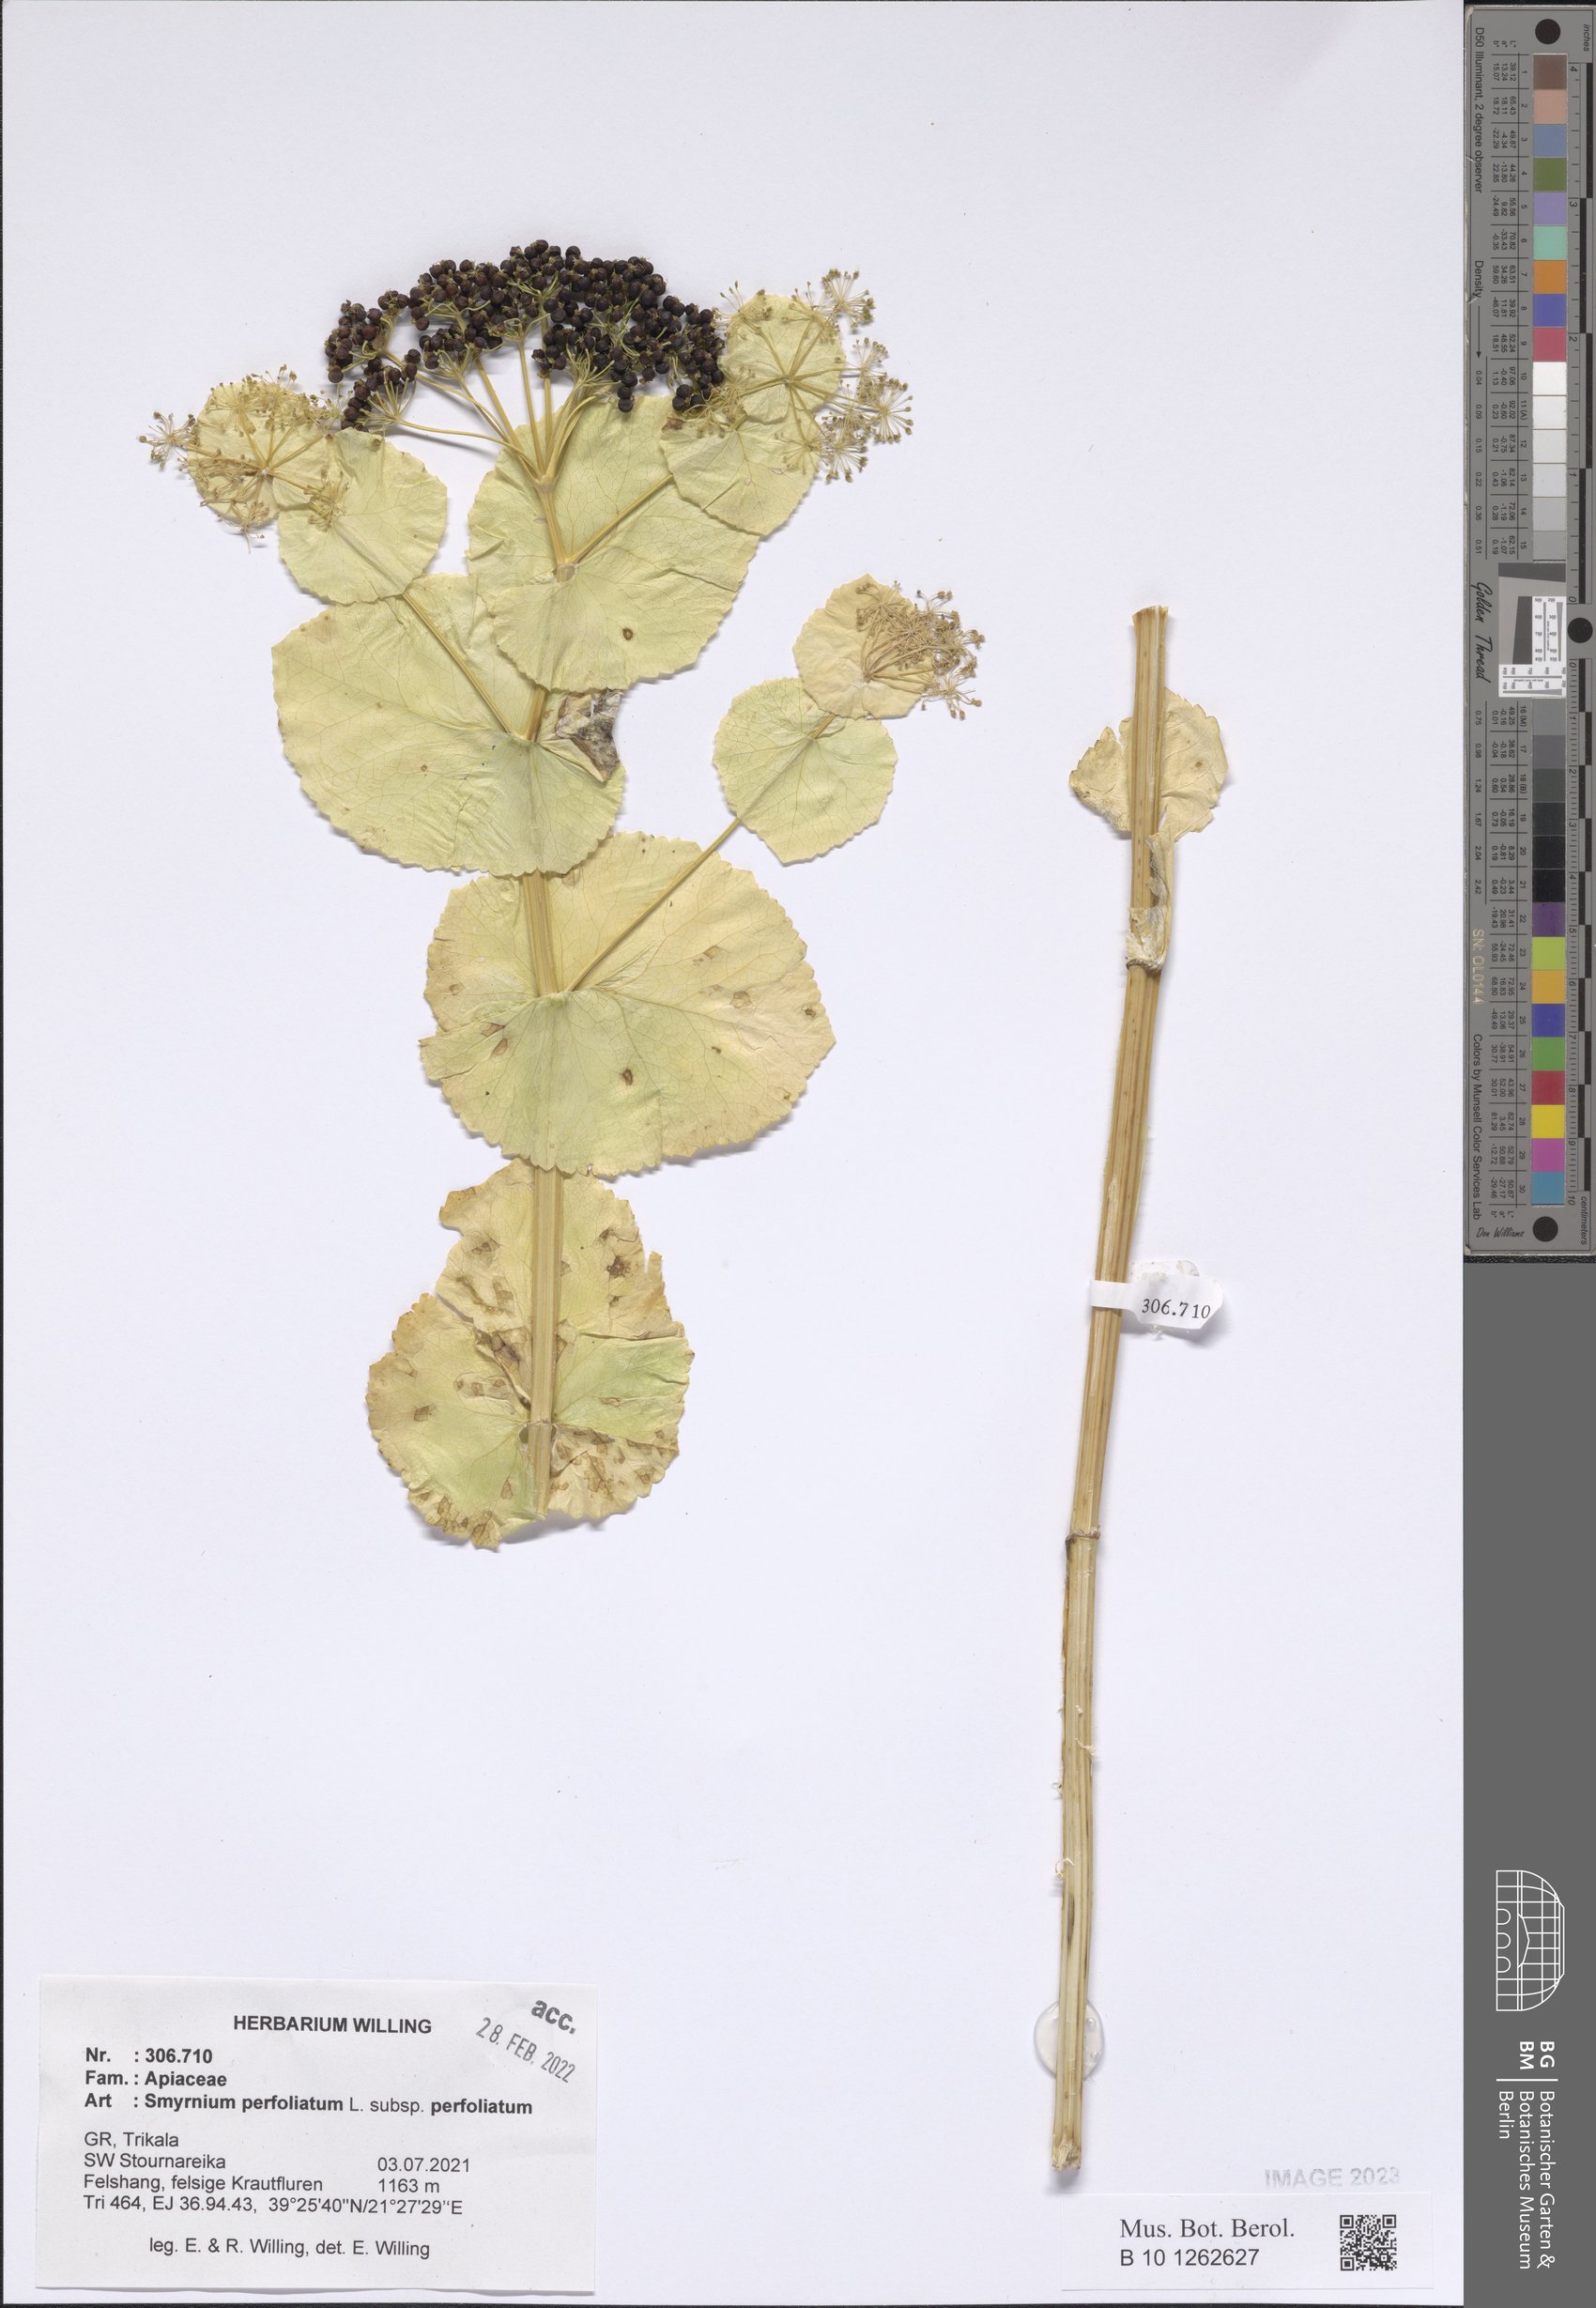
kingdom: Plantae
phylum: Tracheophyta
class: Magnoliopsida
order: Apiales
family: Apiaceae
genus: Smyrnium
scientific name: Smyrnium perfoliatum
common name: Perfoliate alexanders
